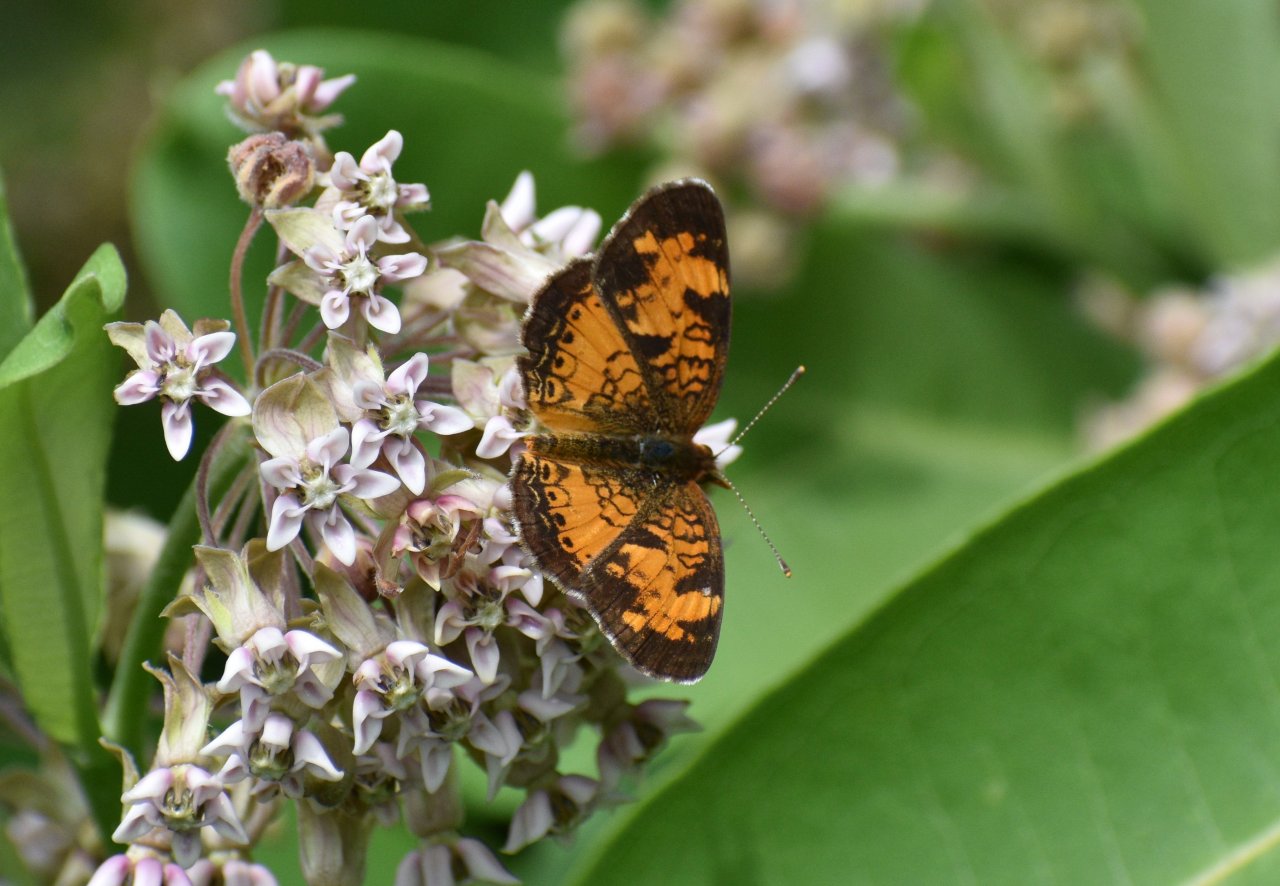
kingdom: Animalia
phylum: Arthropoda
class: Insecta
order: Lepidoptera
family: Nymphalidae
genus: Phyciodes
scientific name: Phyciodes tharos
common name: Northern Crescent
